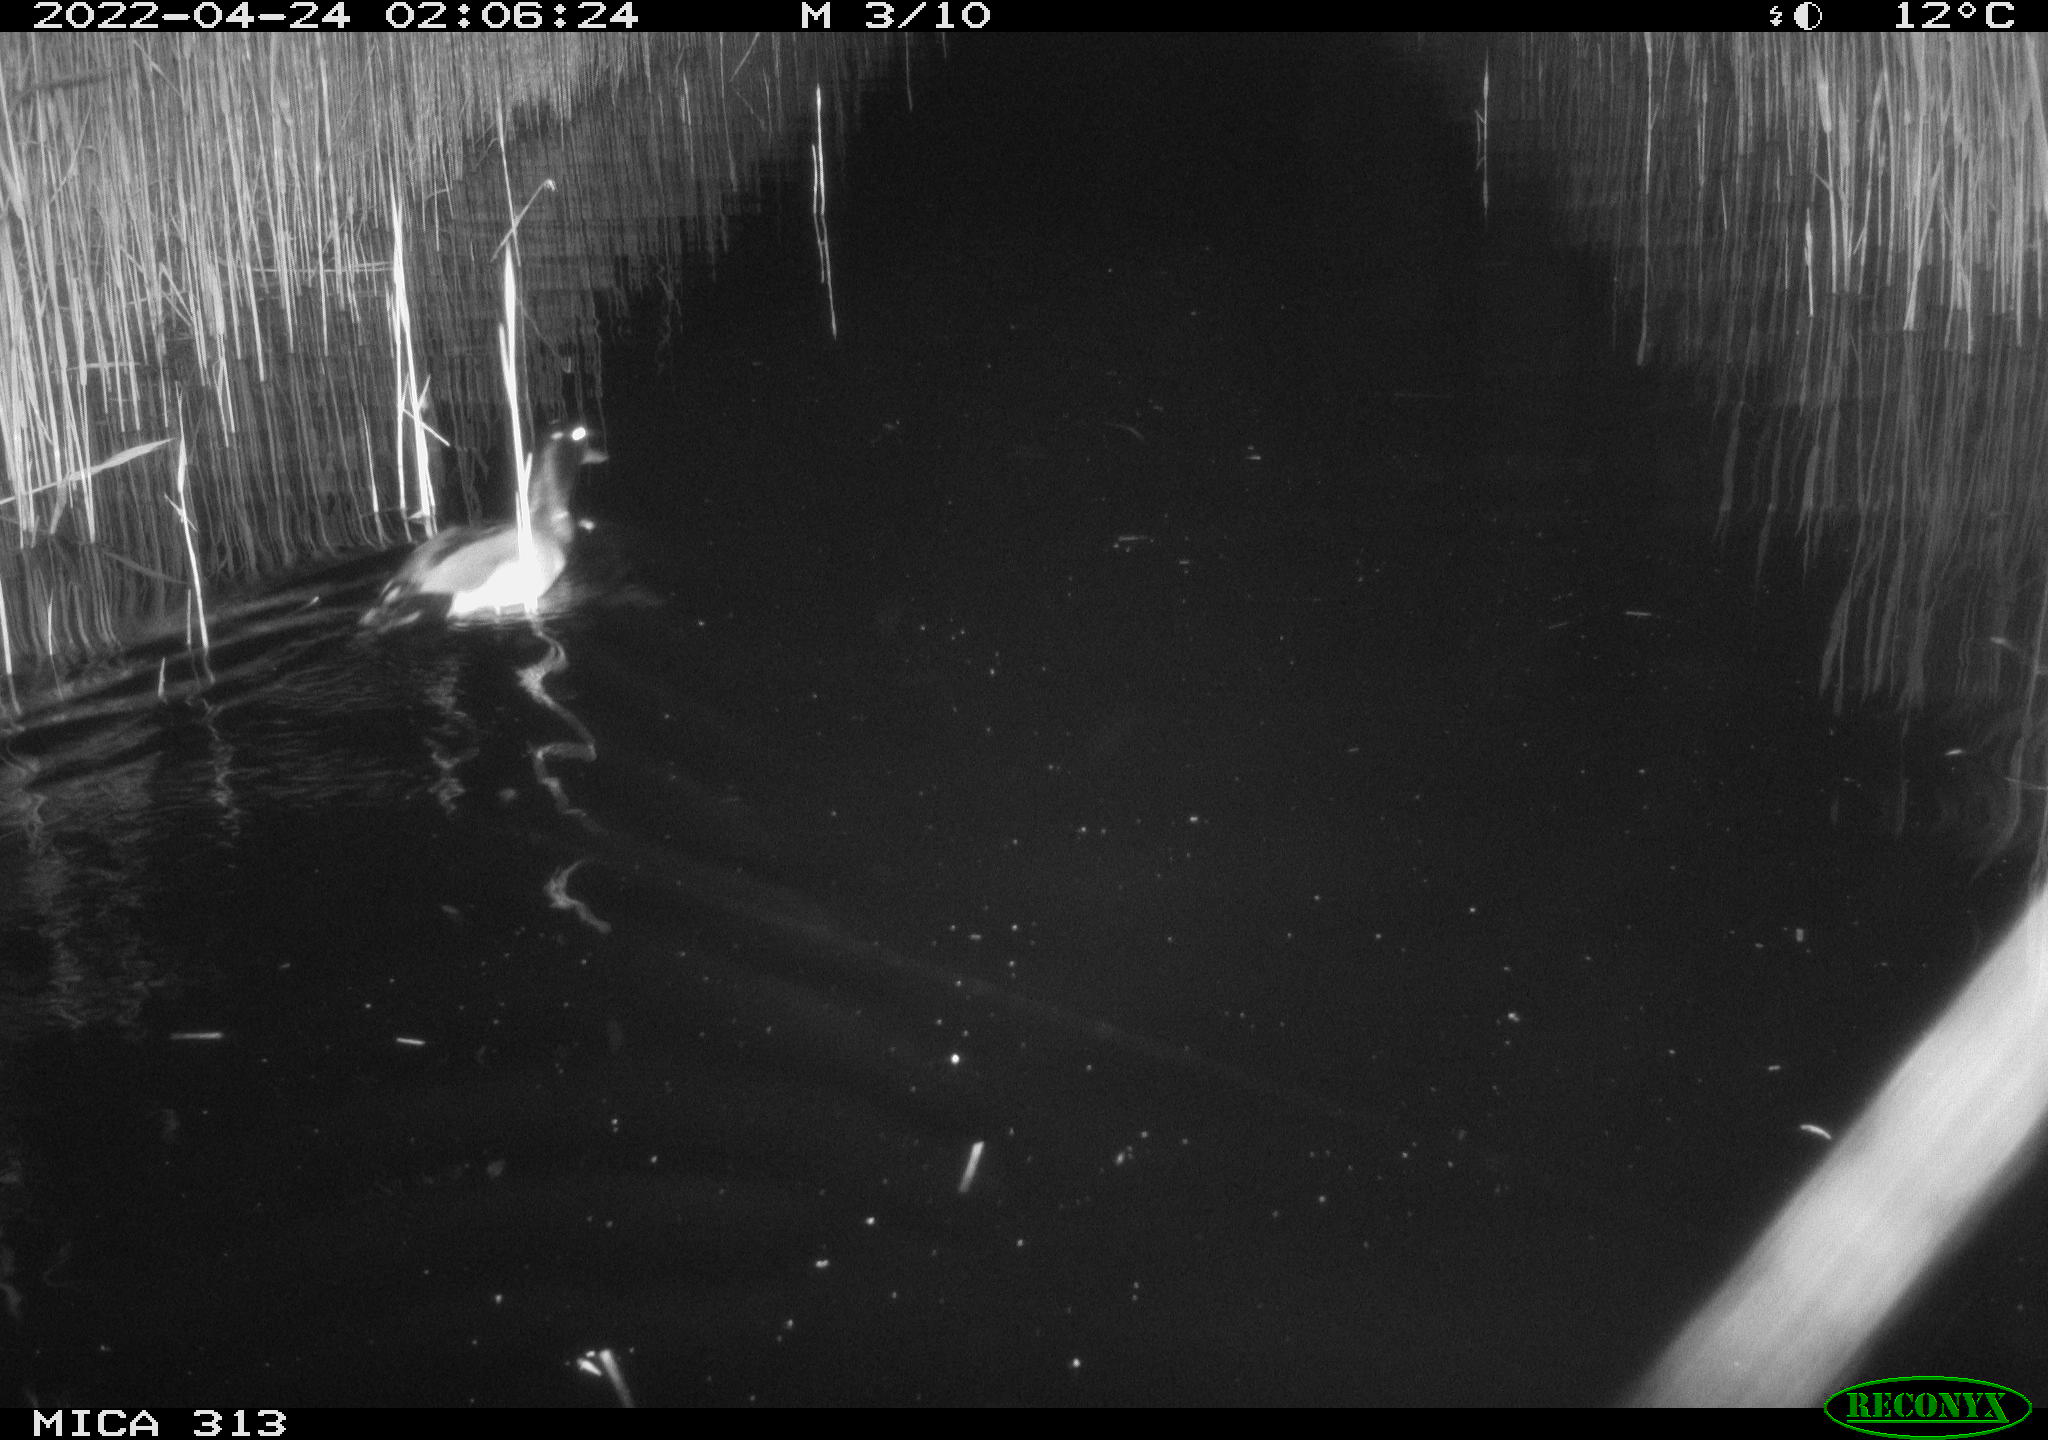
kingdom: Animalia
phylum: Chordata
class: Aves
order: Anseriformes
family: Anatidae
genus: Anas
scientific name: Anas platyrhynchos
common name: Mallard
